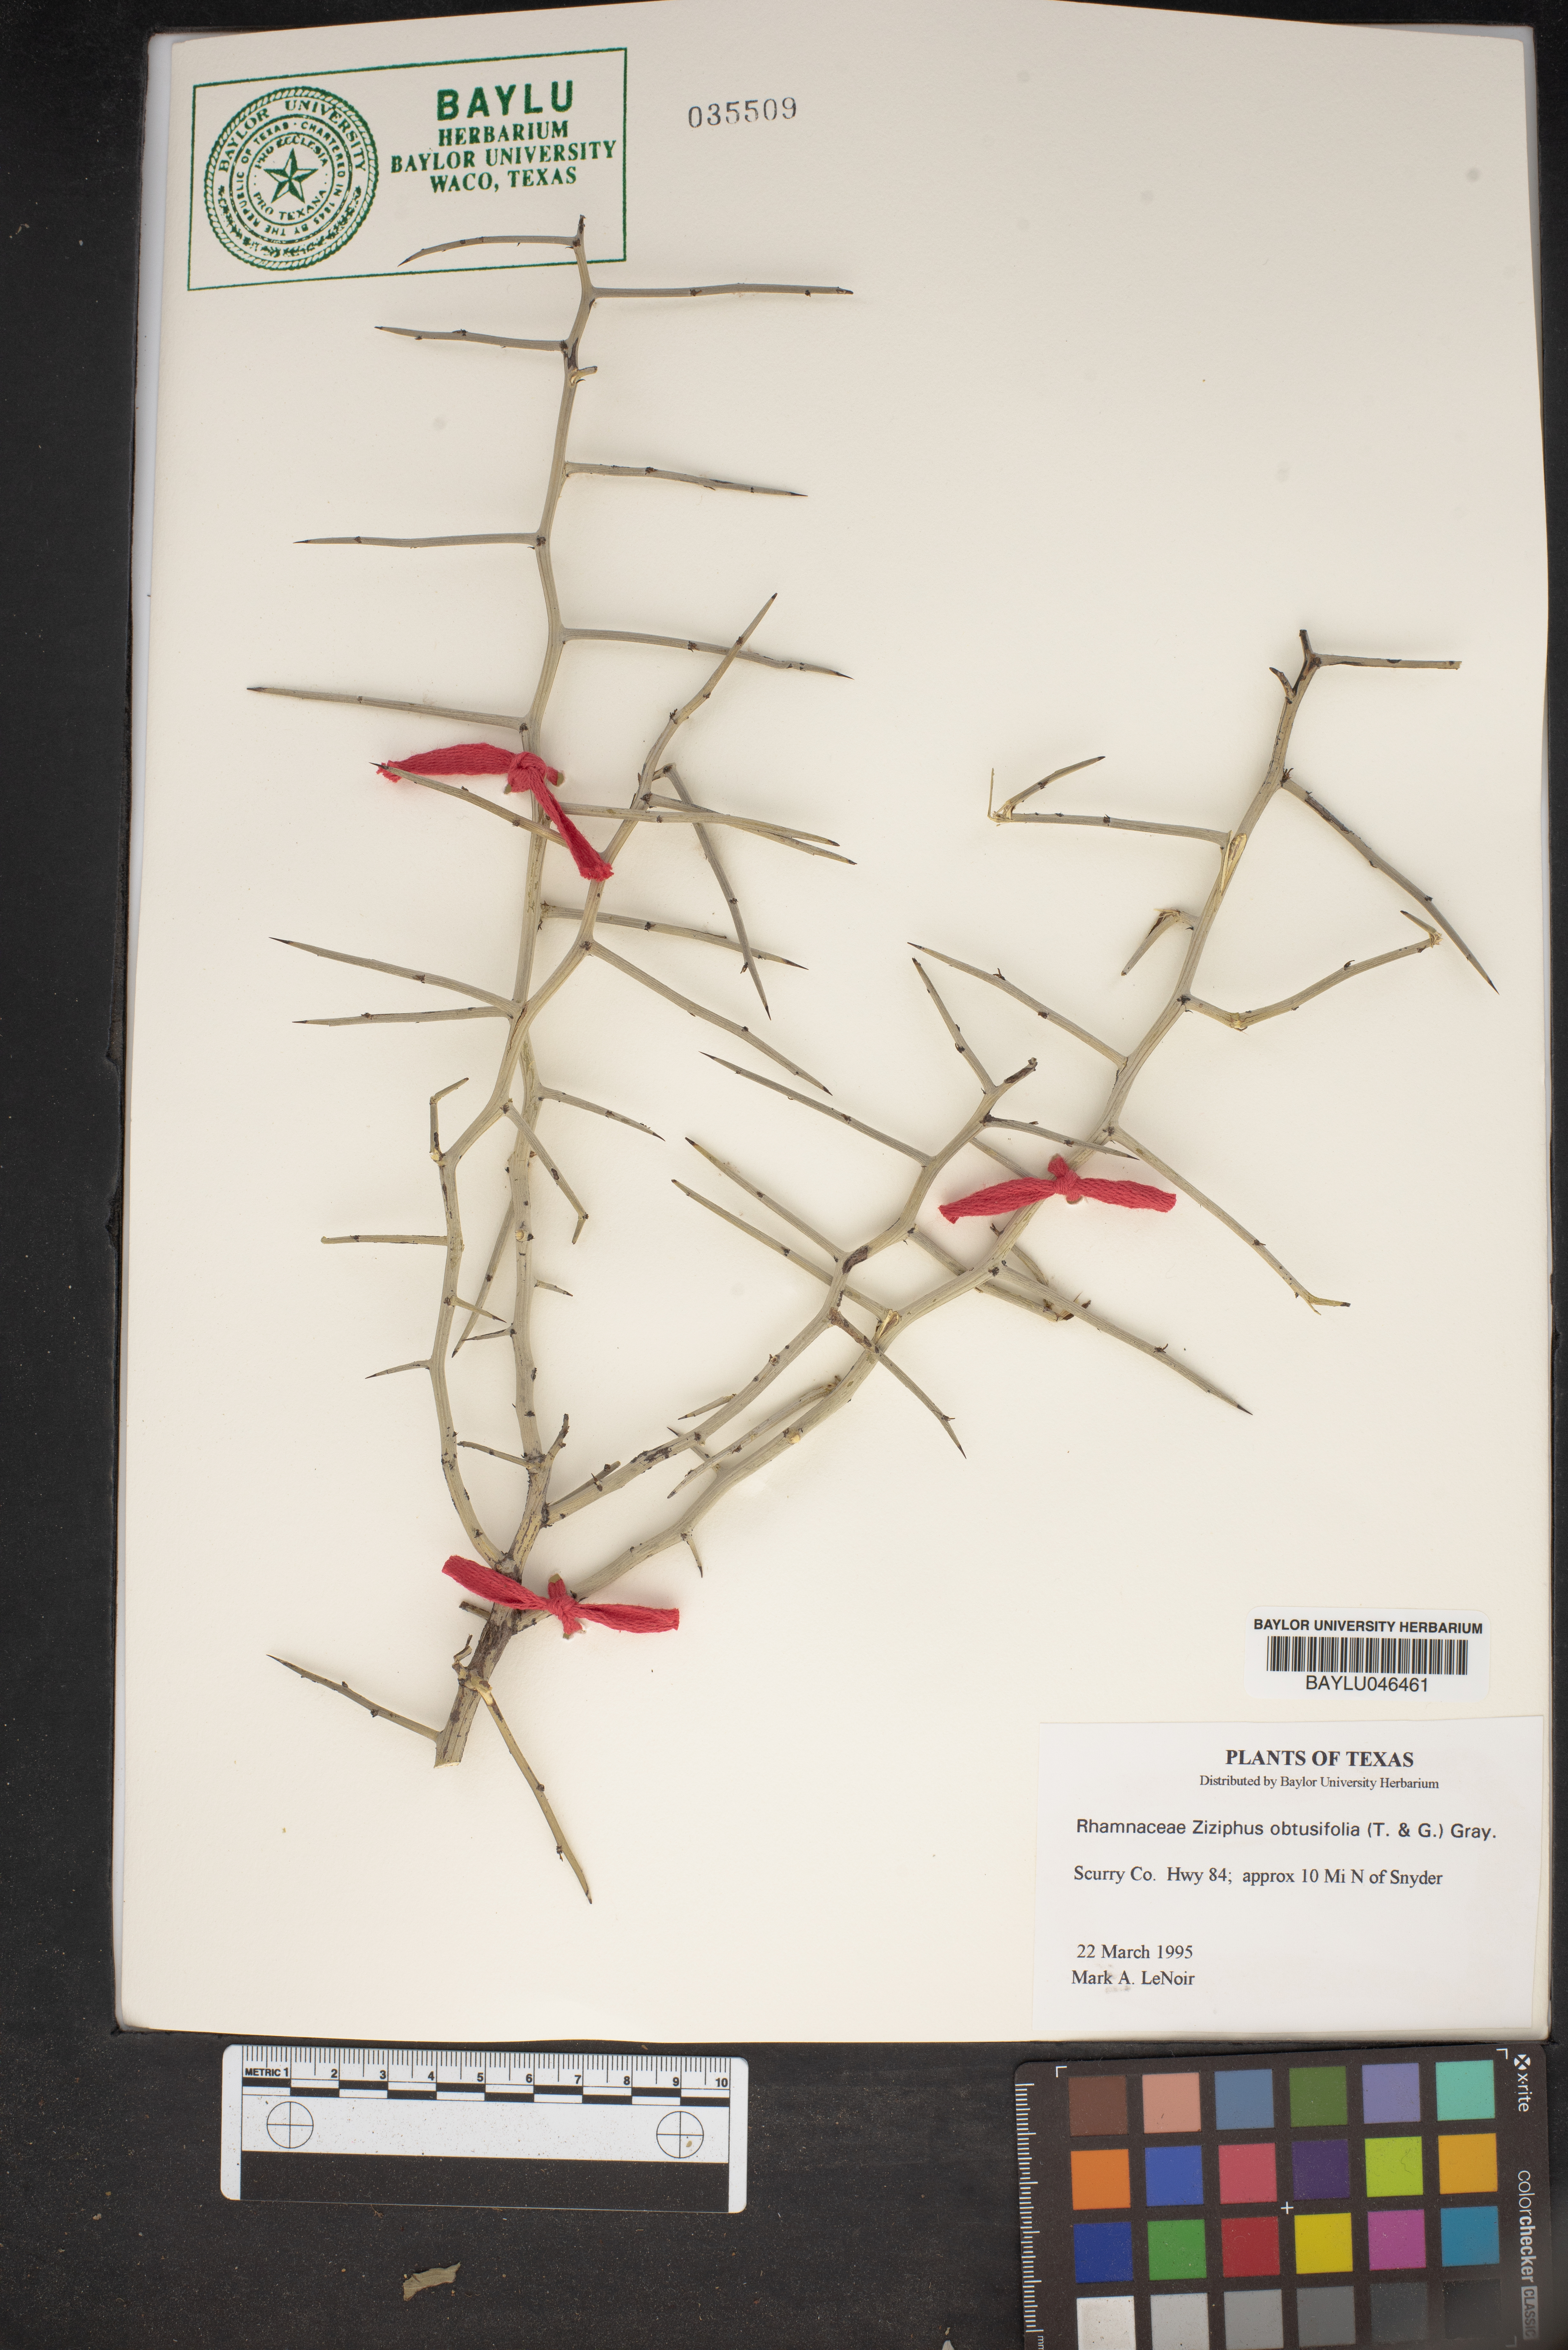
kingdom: Plantae
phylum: Tracheophyta
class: Magnoliopsida
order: Rosales
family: Rhamnaceae
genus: Sarcomphalus
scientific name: Sarcomphalus obtusifolius
